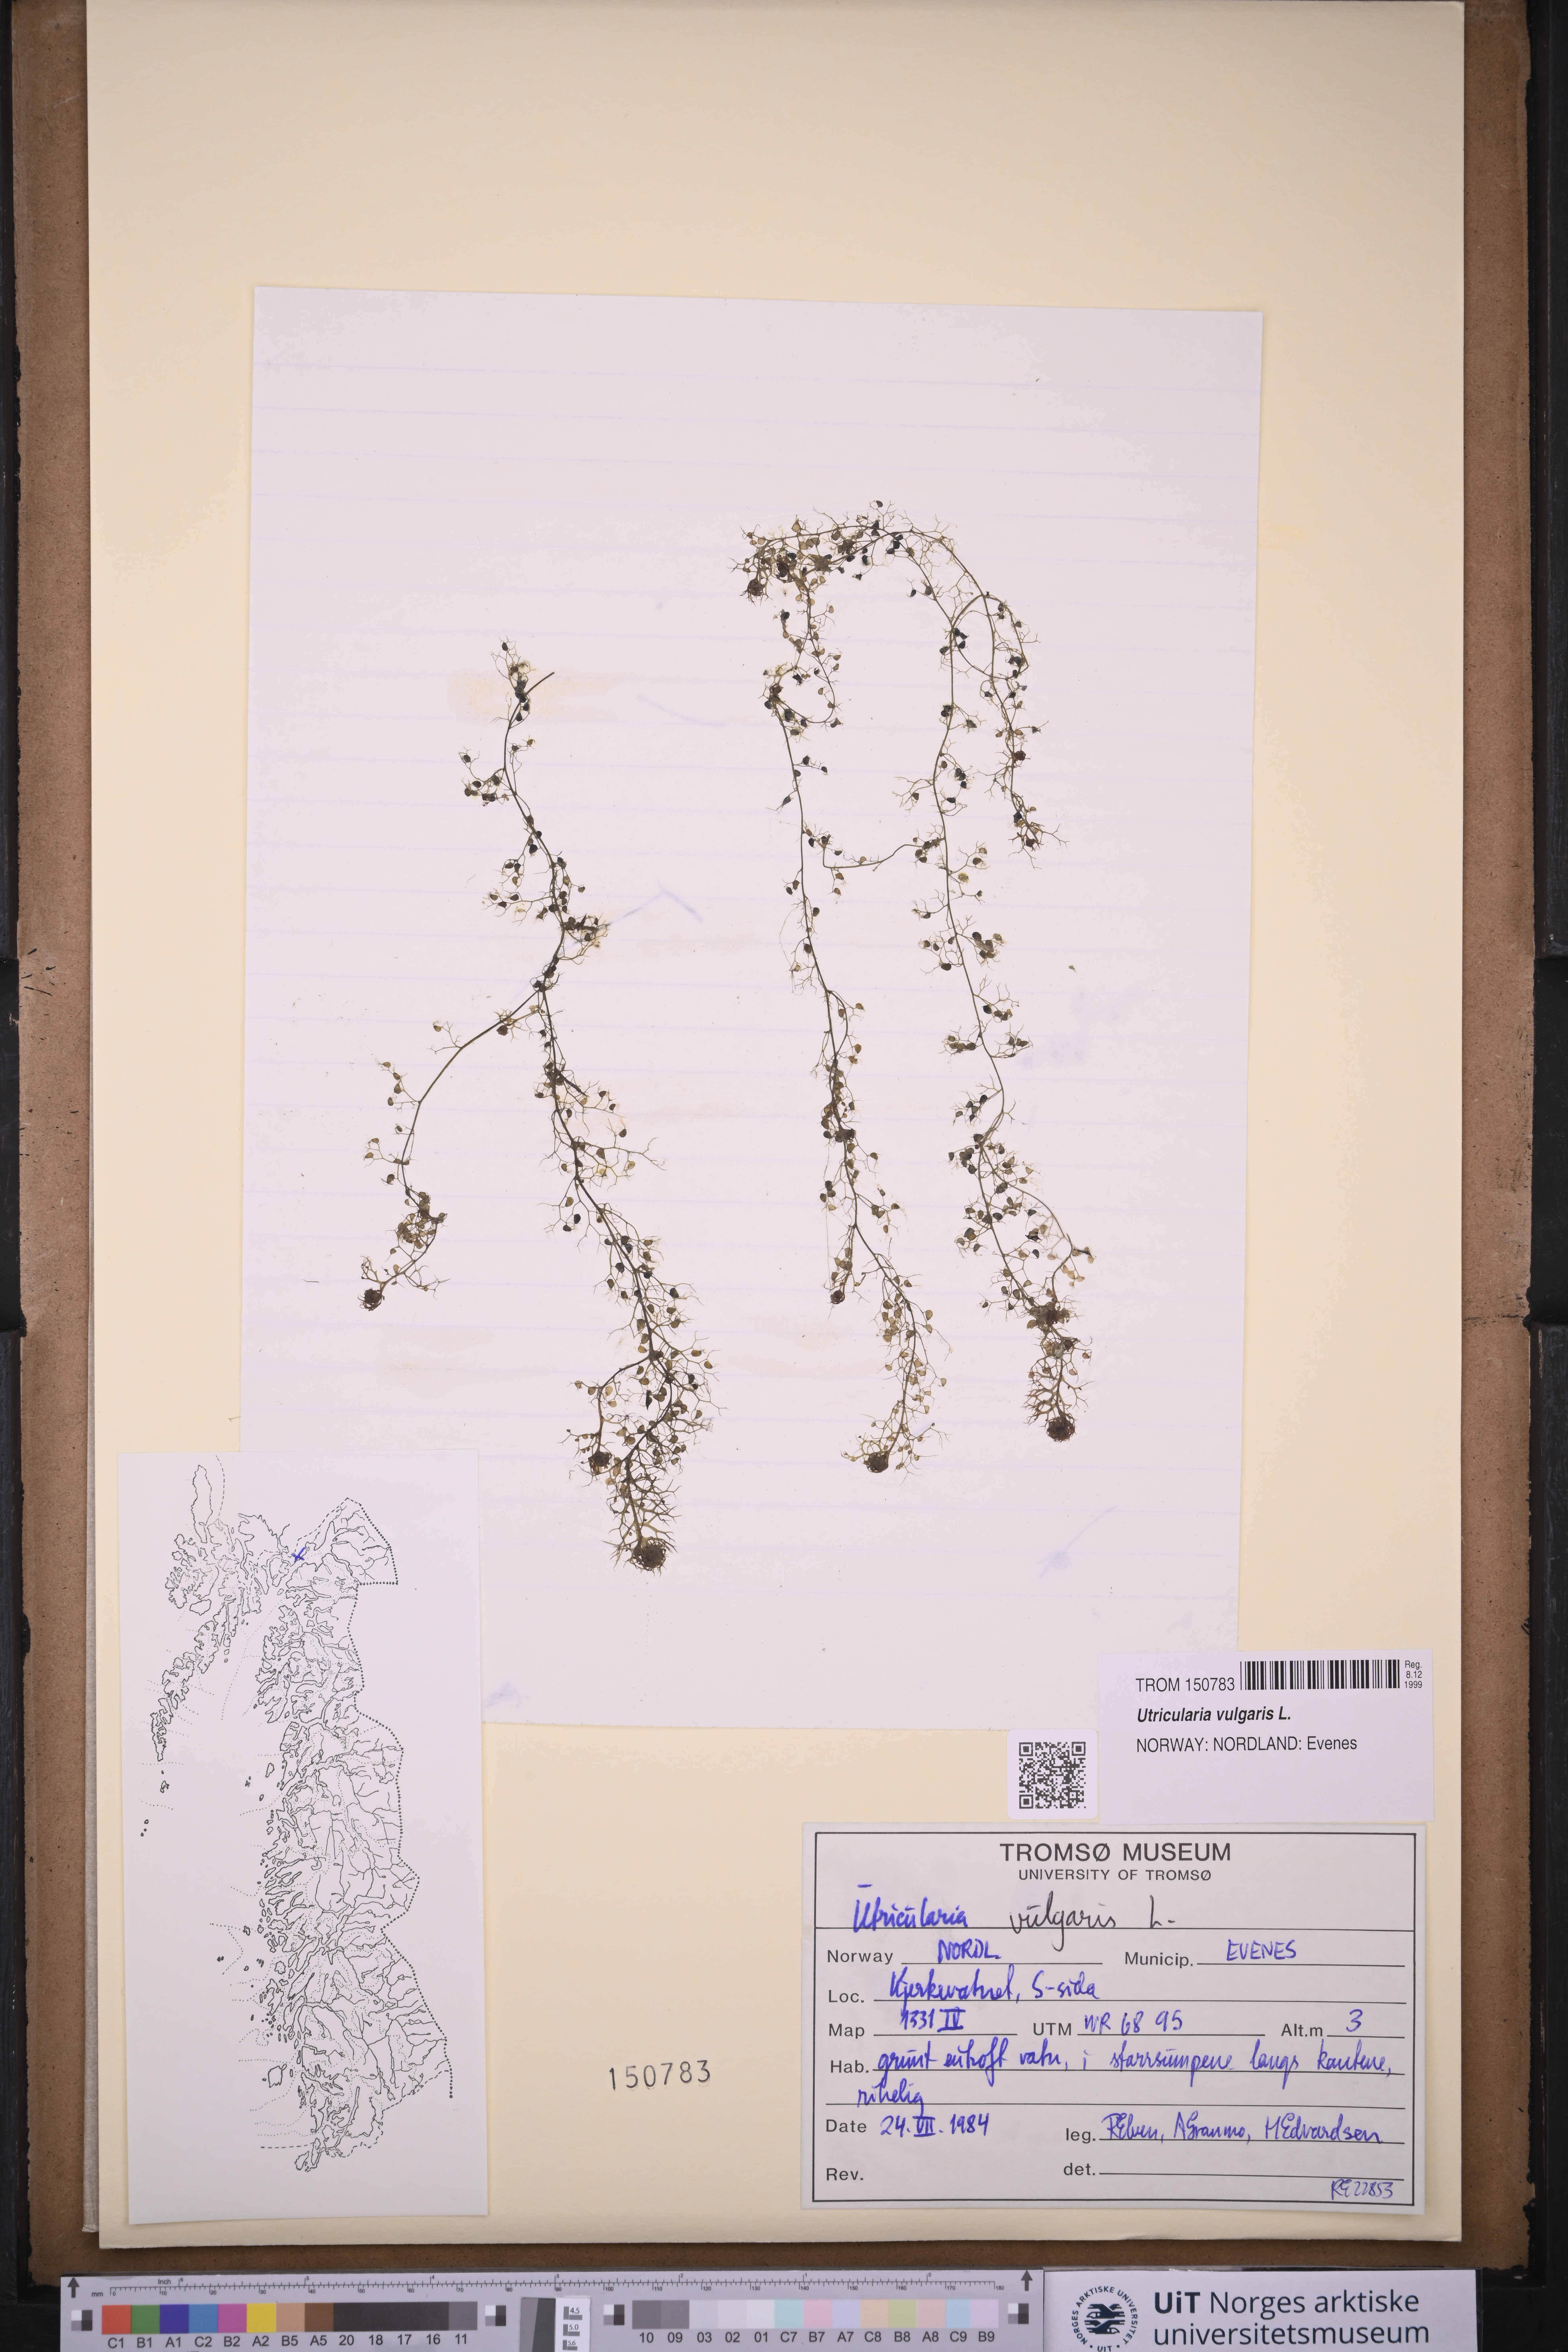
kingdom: Plantae
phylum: Tracheophyta
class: Magnoliopsida
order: Lamiales
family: Lentibulariaceae
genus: Utricularia
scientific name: Utricularia vulgaris
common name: Greater bladderwort
